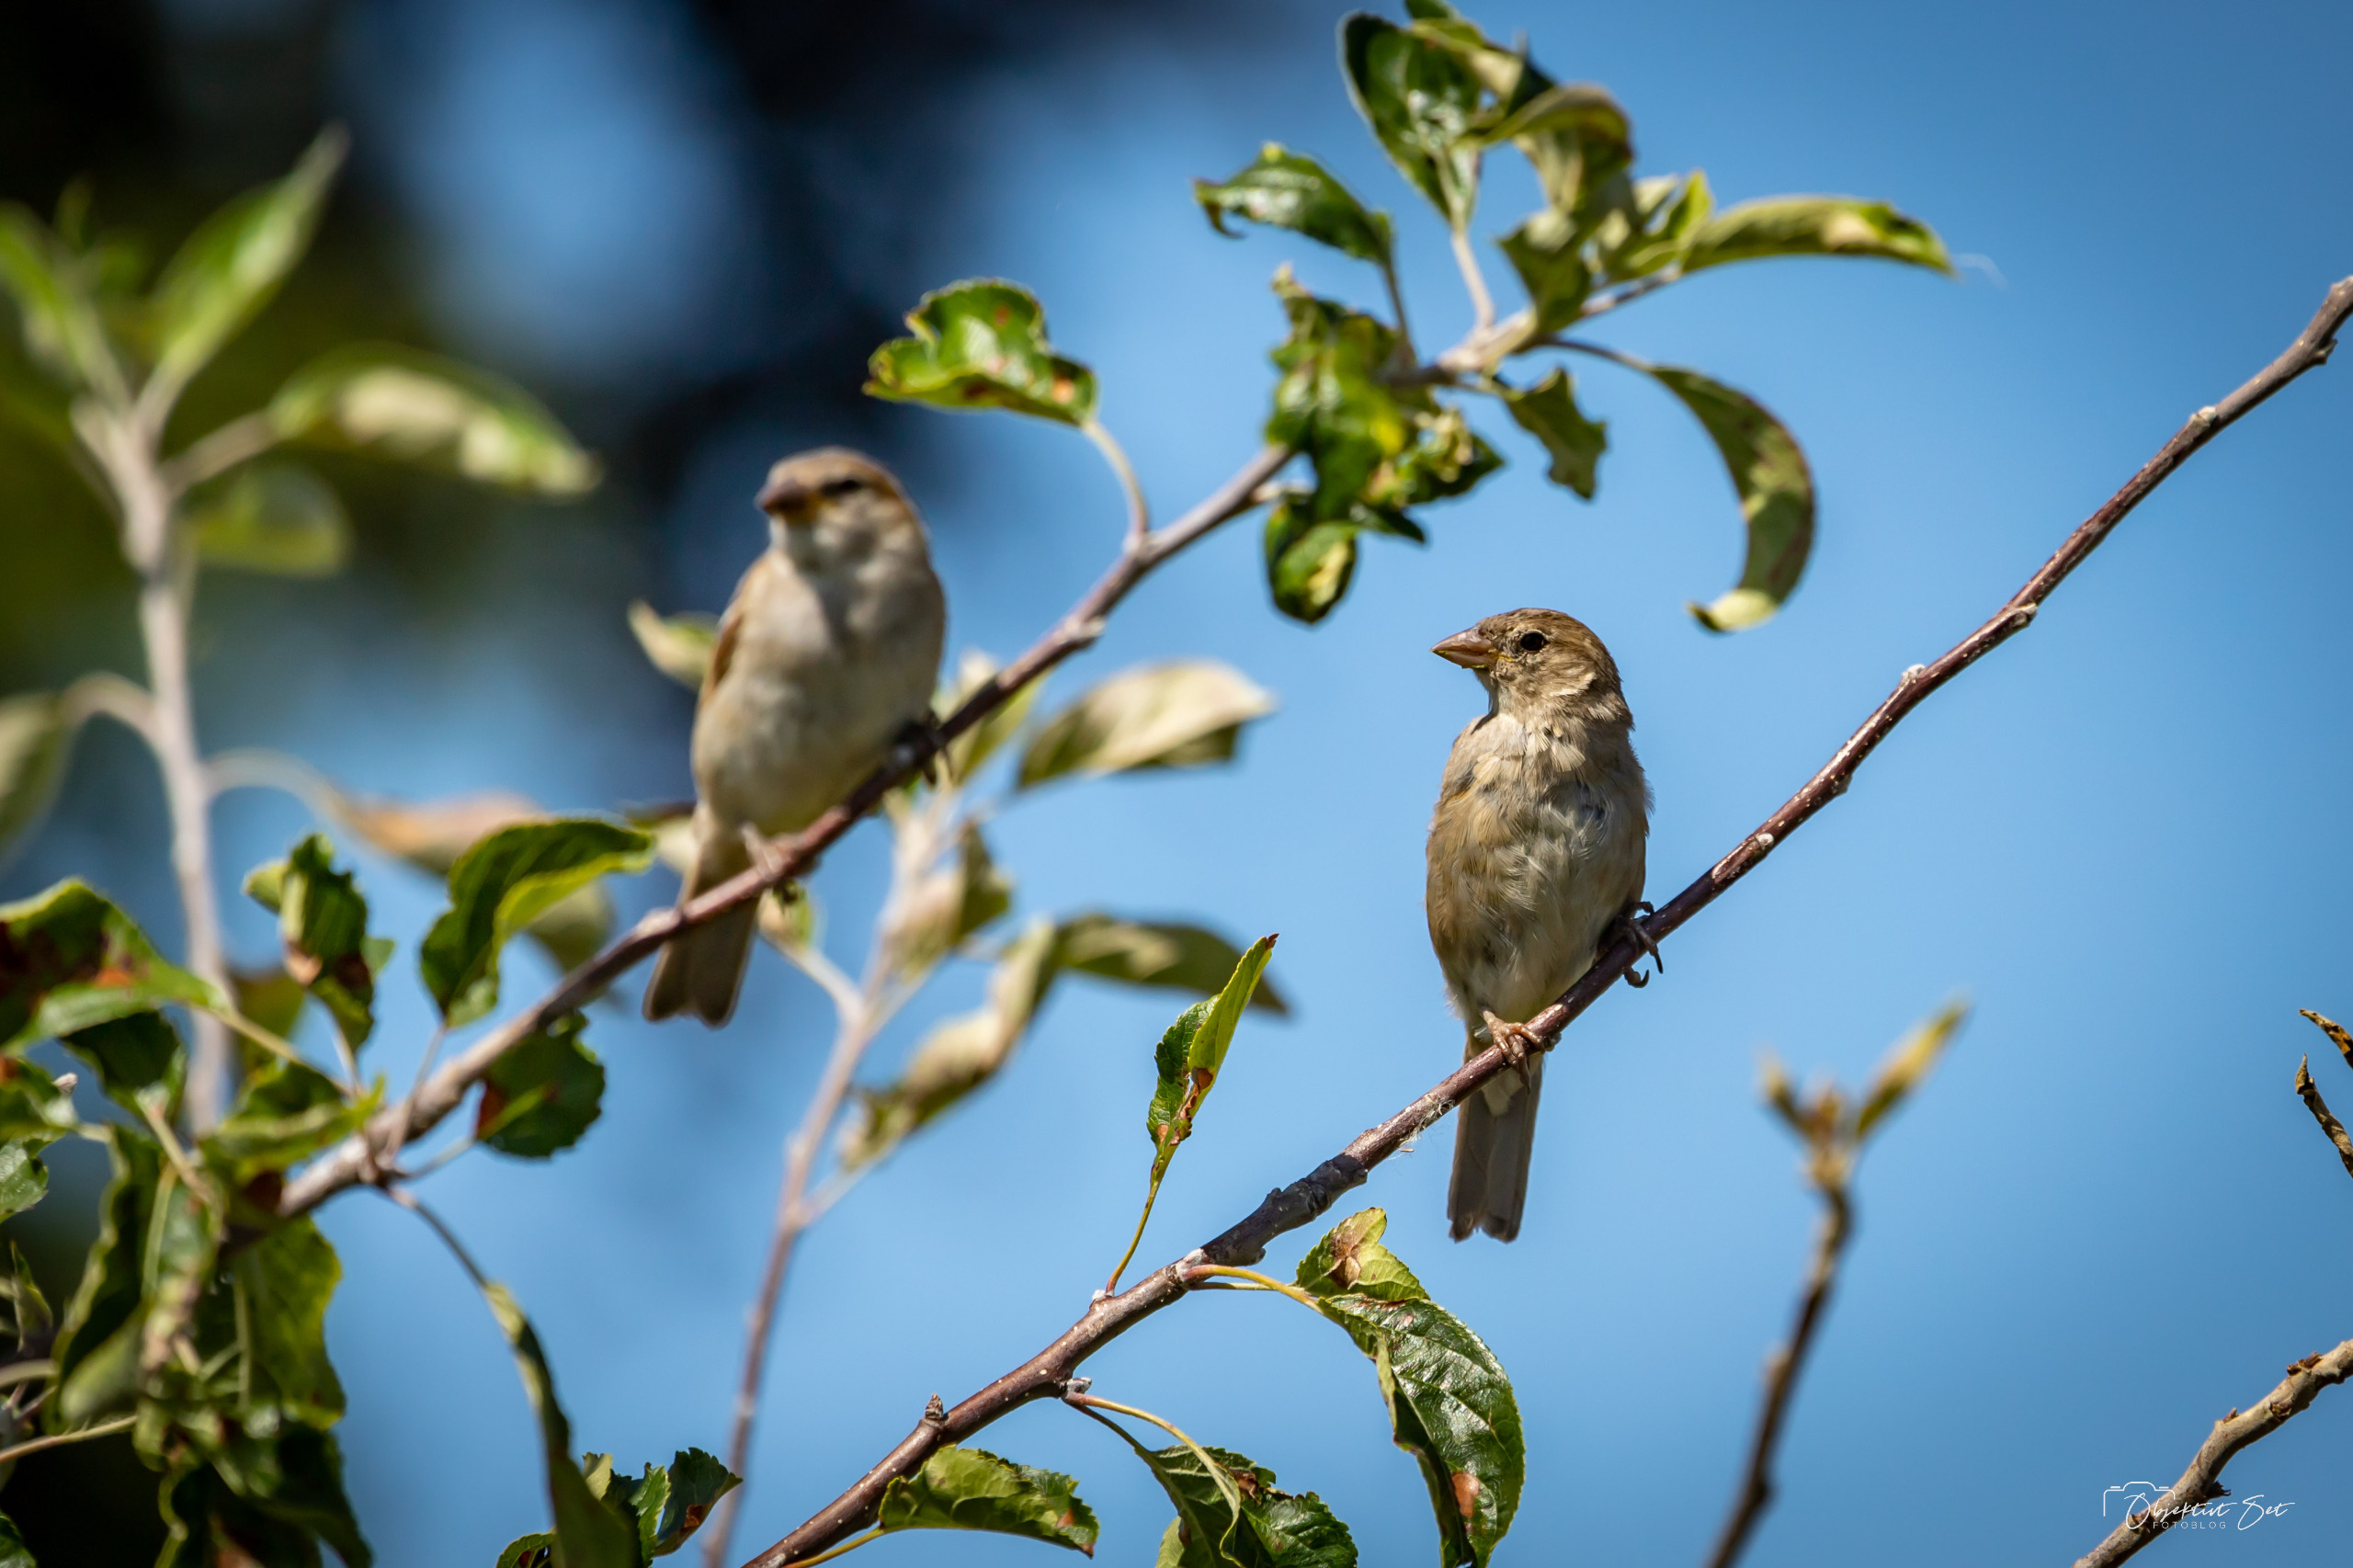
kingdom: Animalia
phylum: Chordata
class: Aves
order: Passeriformes
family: Passeridae
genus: Passer
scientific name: Passer domesticus
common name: Gråspurv
